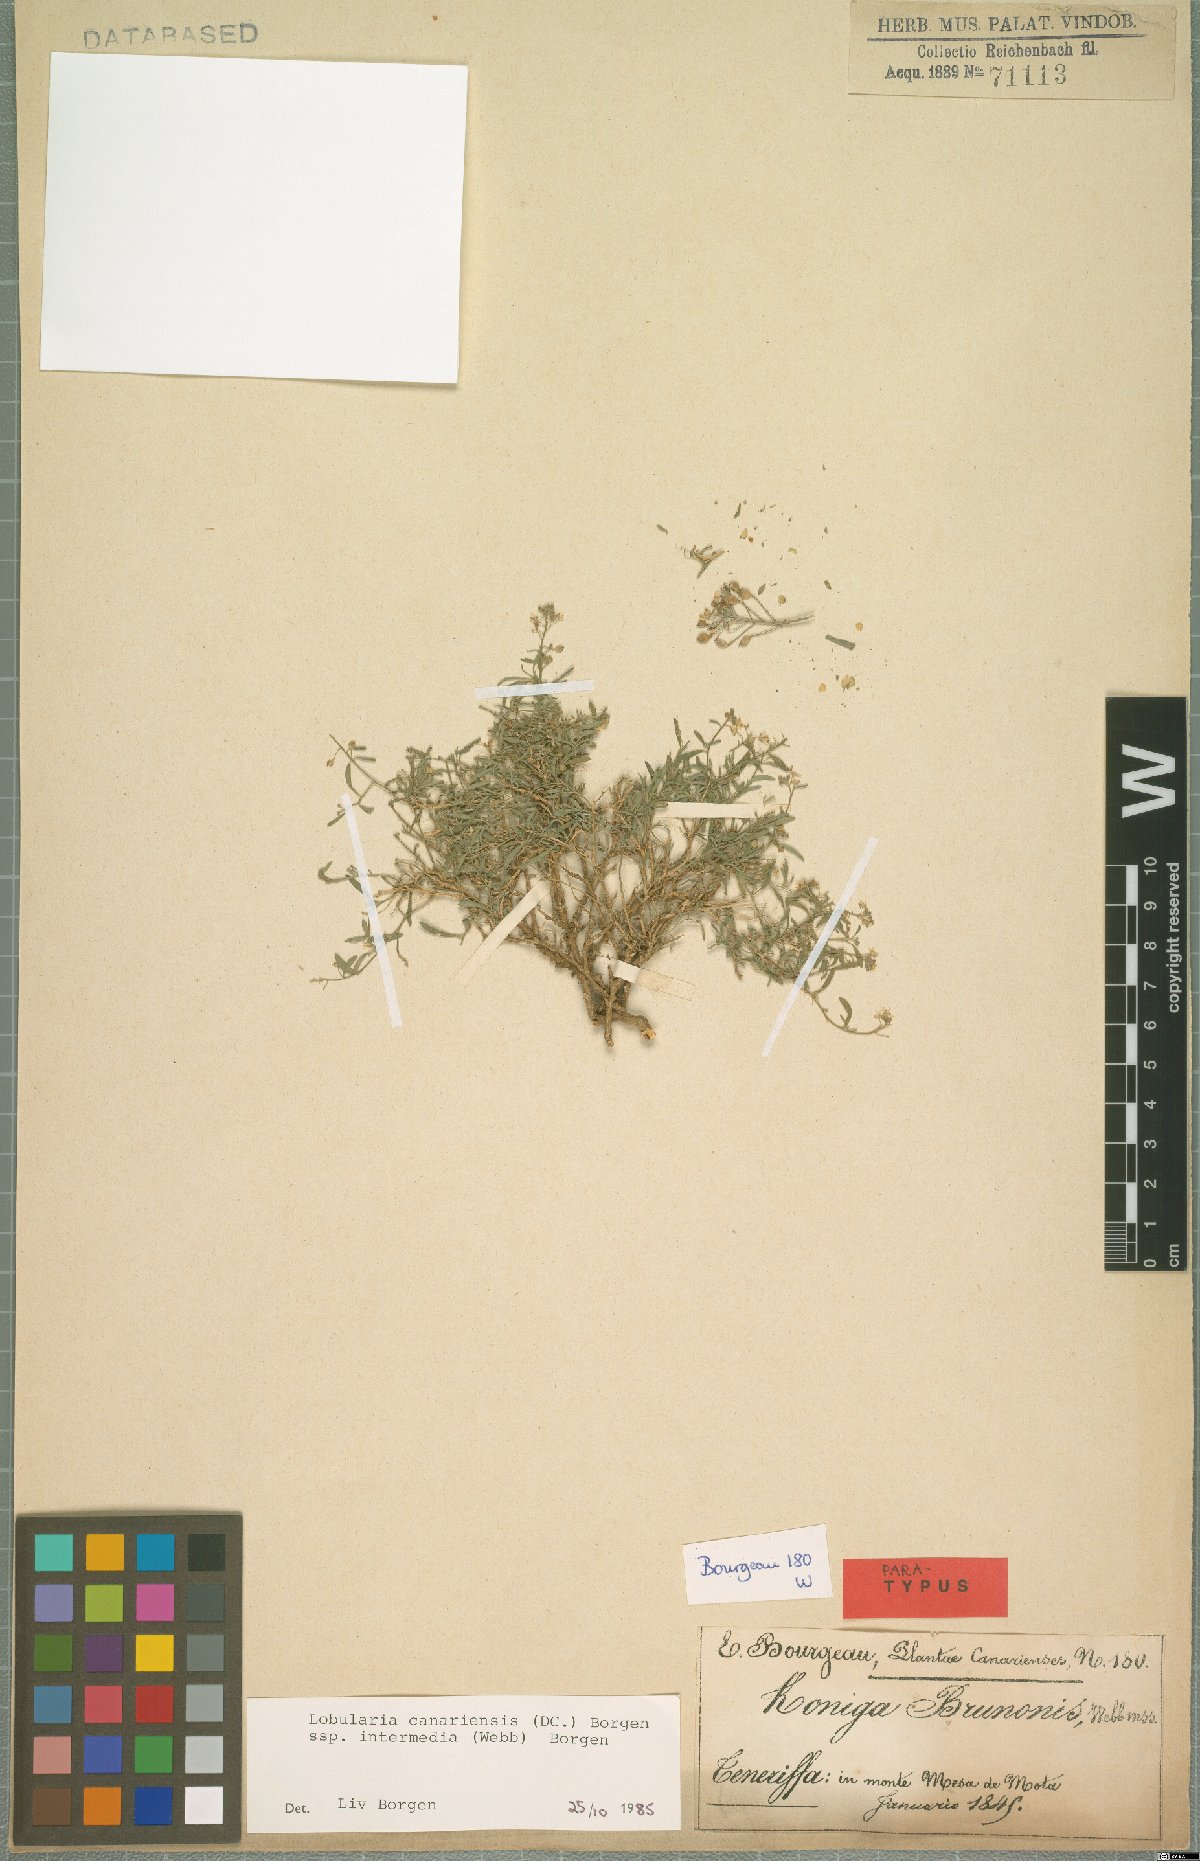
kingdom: Plantae
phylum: Tracheophyta
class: Magnoliopsida
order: Brassicales
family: Brassicaceae
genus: Lobularia
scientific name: Lobularia canariensis
